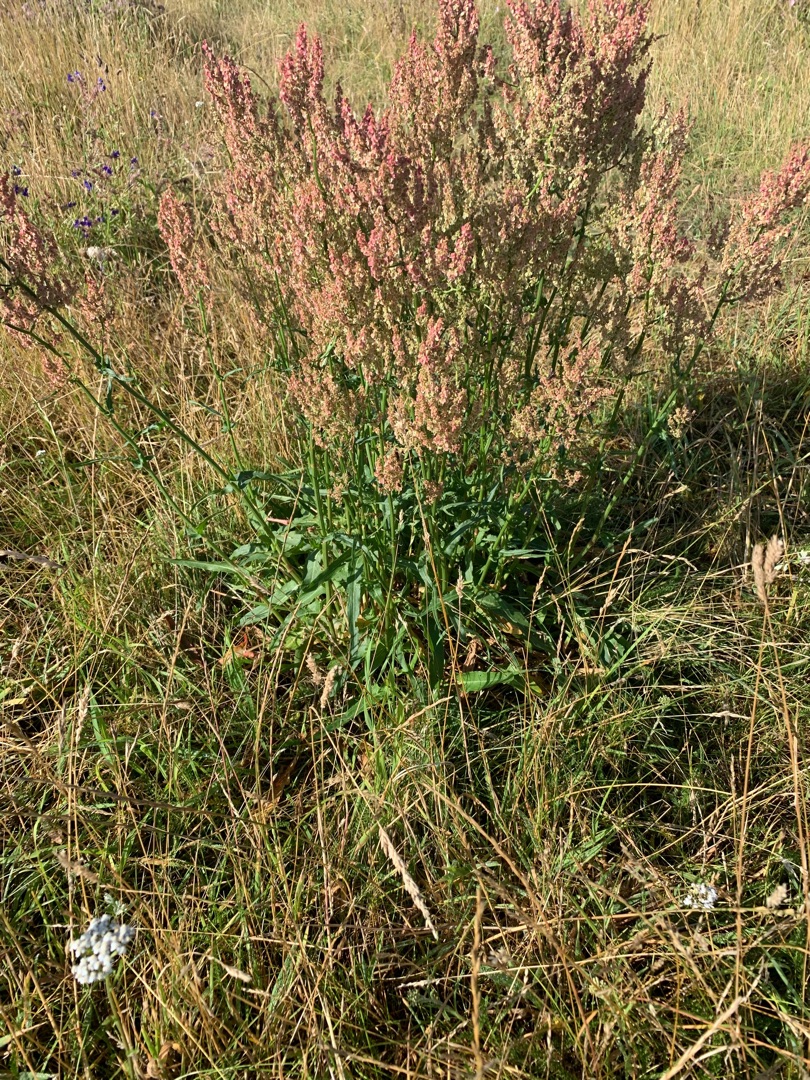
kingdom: Plantae
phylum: Tracheophyta
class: Magnoliopsida
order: Caryophyllales
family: Polygonaceae
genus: Rumex
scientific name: Rumex thyrsiflorus
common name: Dusk-syre
